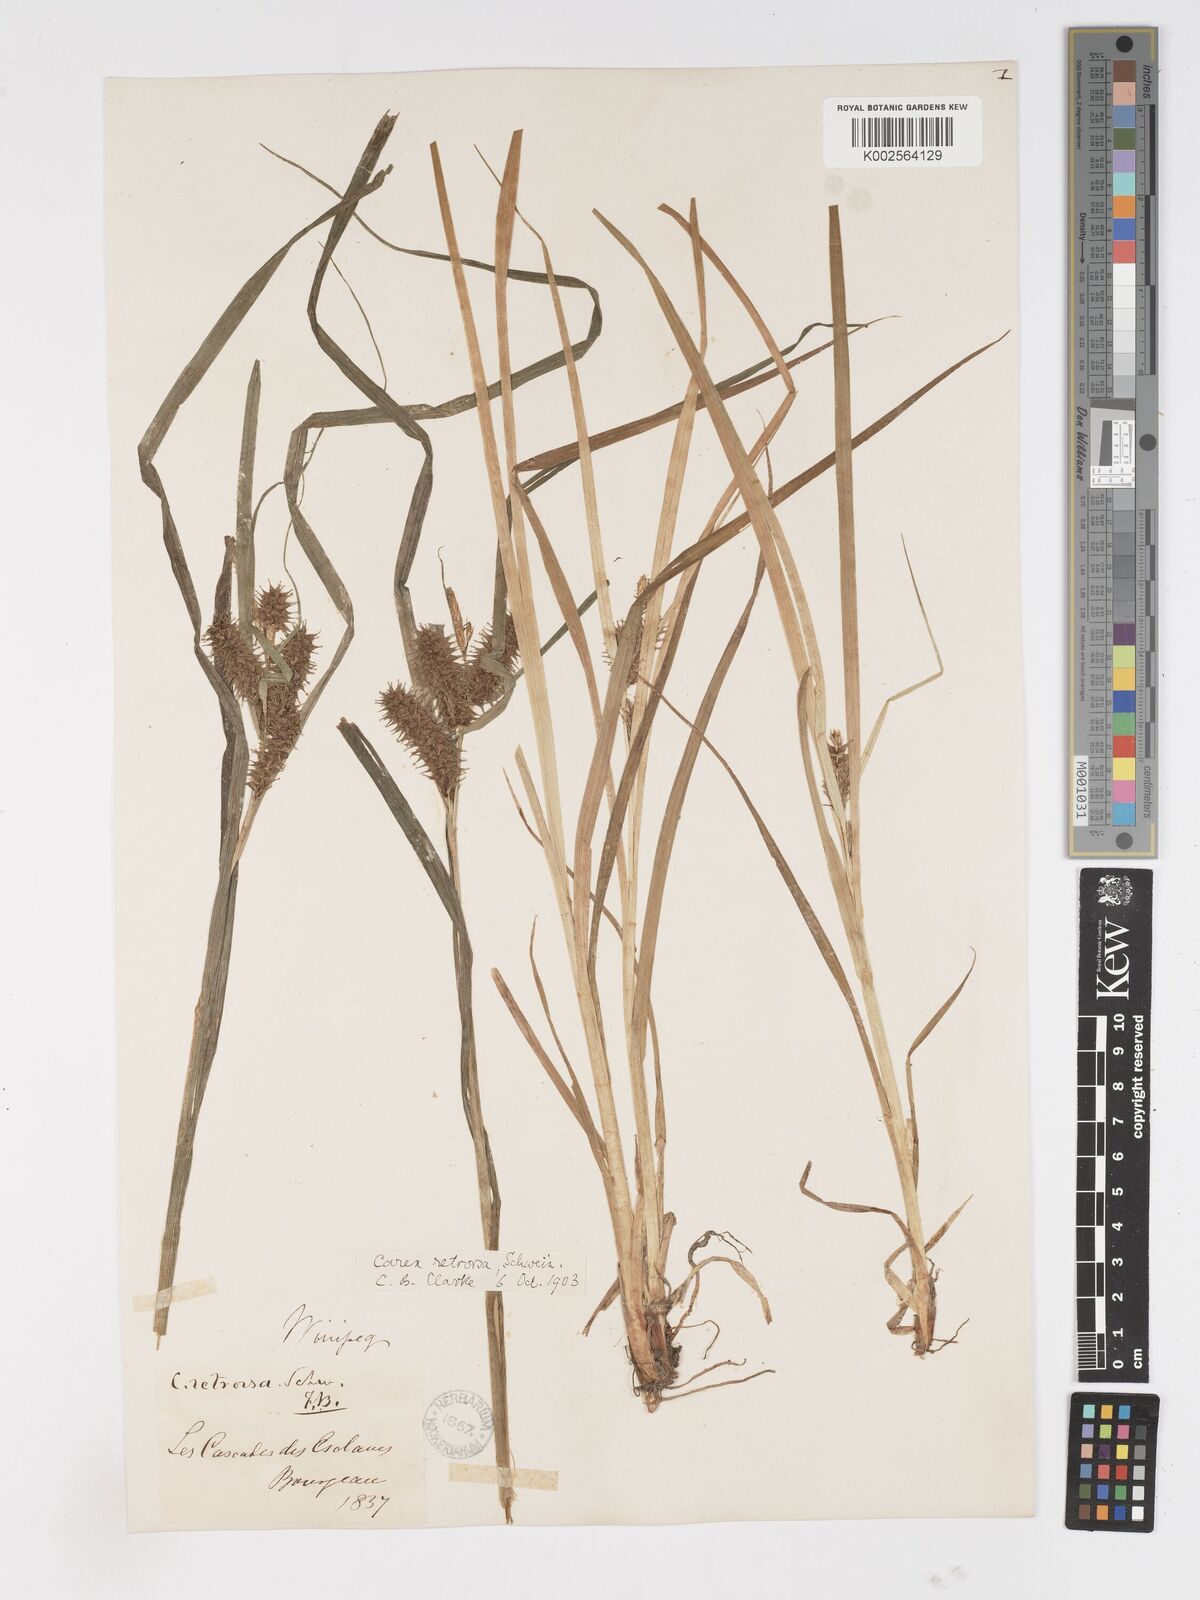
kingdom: Plantae
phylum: Tracheophyta
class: Liliopsida
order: Poales
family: Cyperaceae
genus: Carex
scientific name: Carex retrorsa
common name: Knot-sheath sedge
